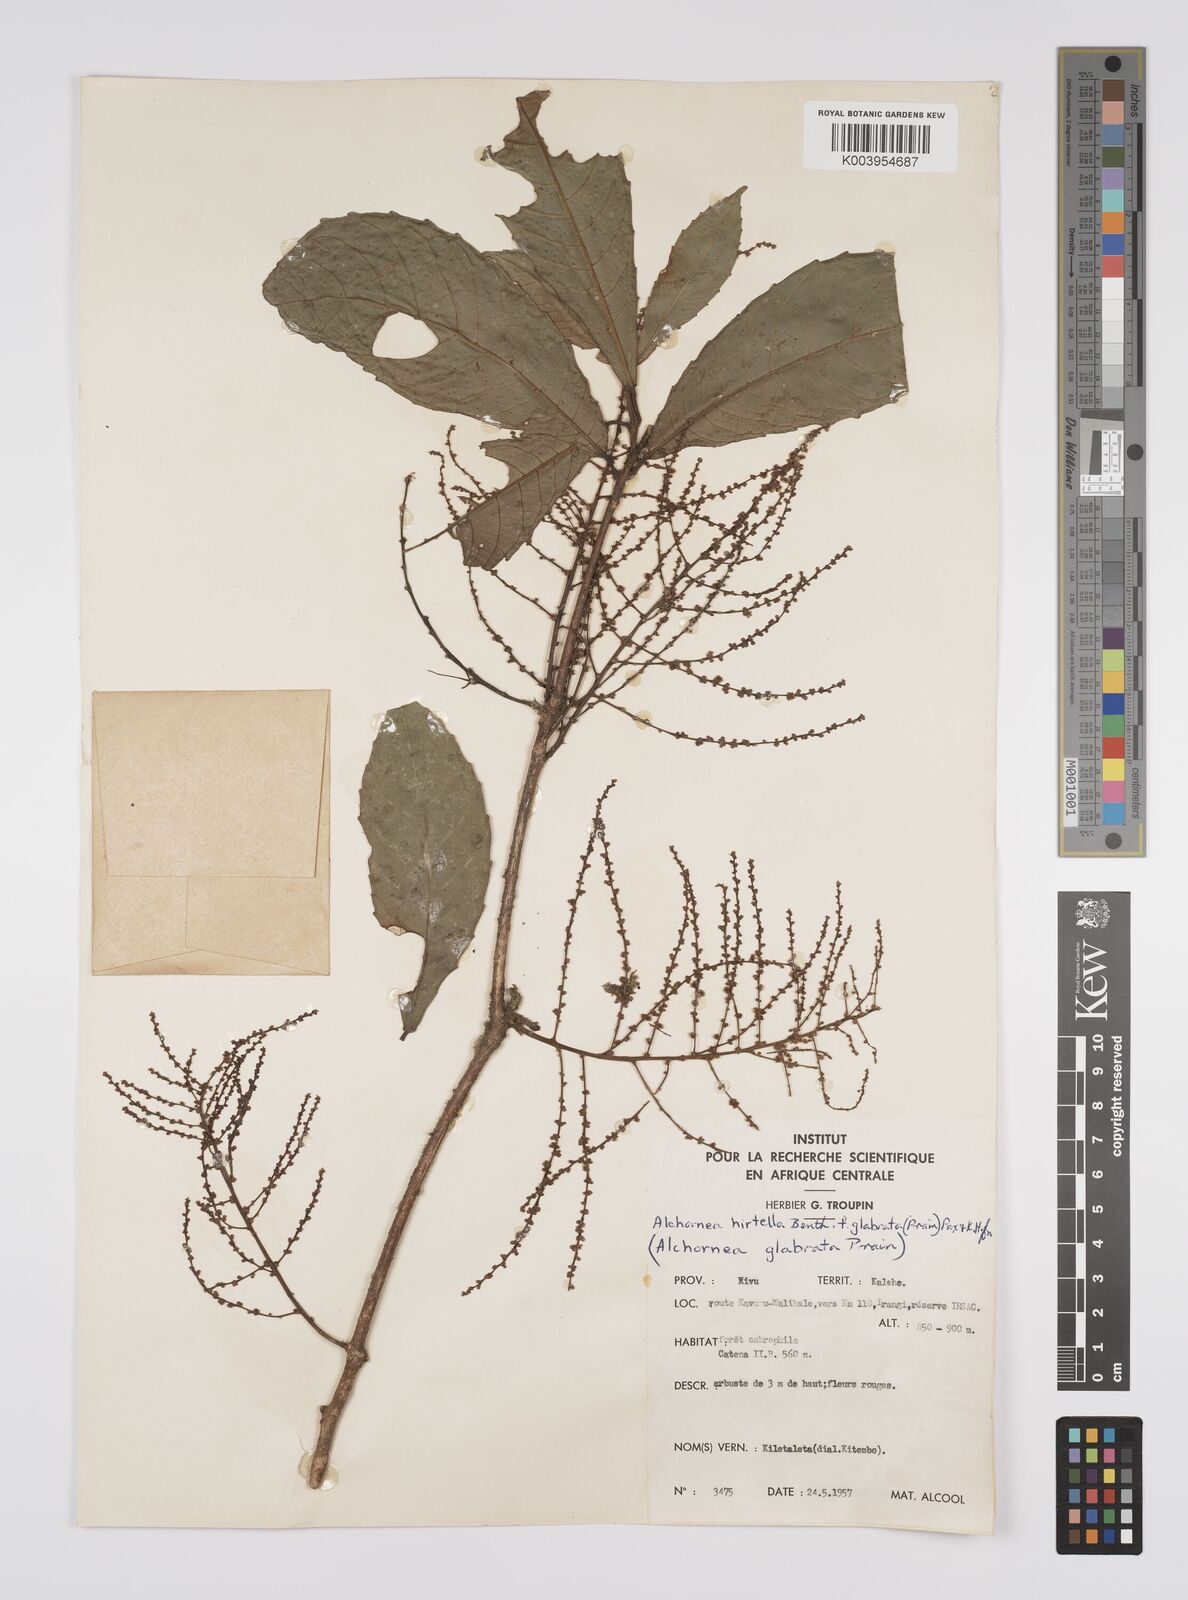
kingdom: Plantae
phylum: Tracheophyta
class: Magnoliopsida
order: Malpighiales
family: Euphorbiaceae
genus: Alchornea
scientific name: Alchornea hirtella
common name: Forest bead-string
